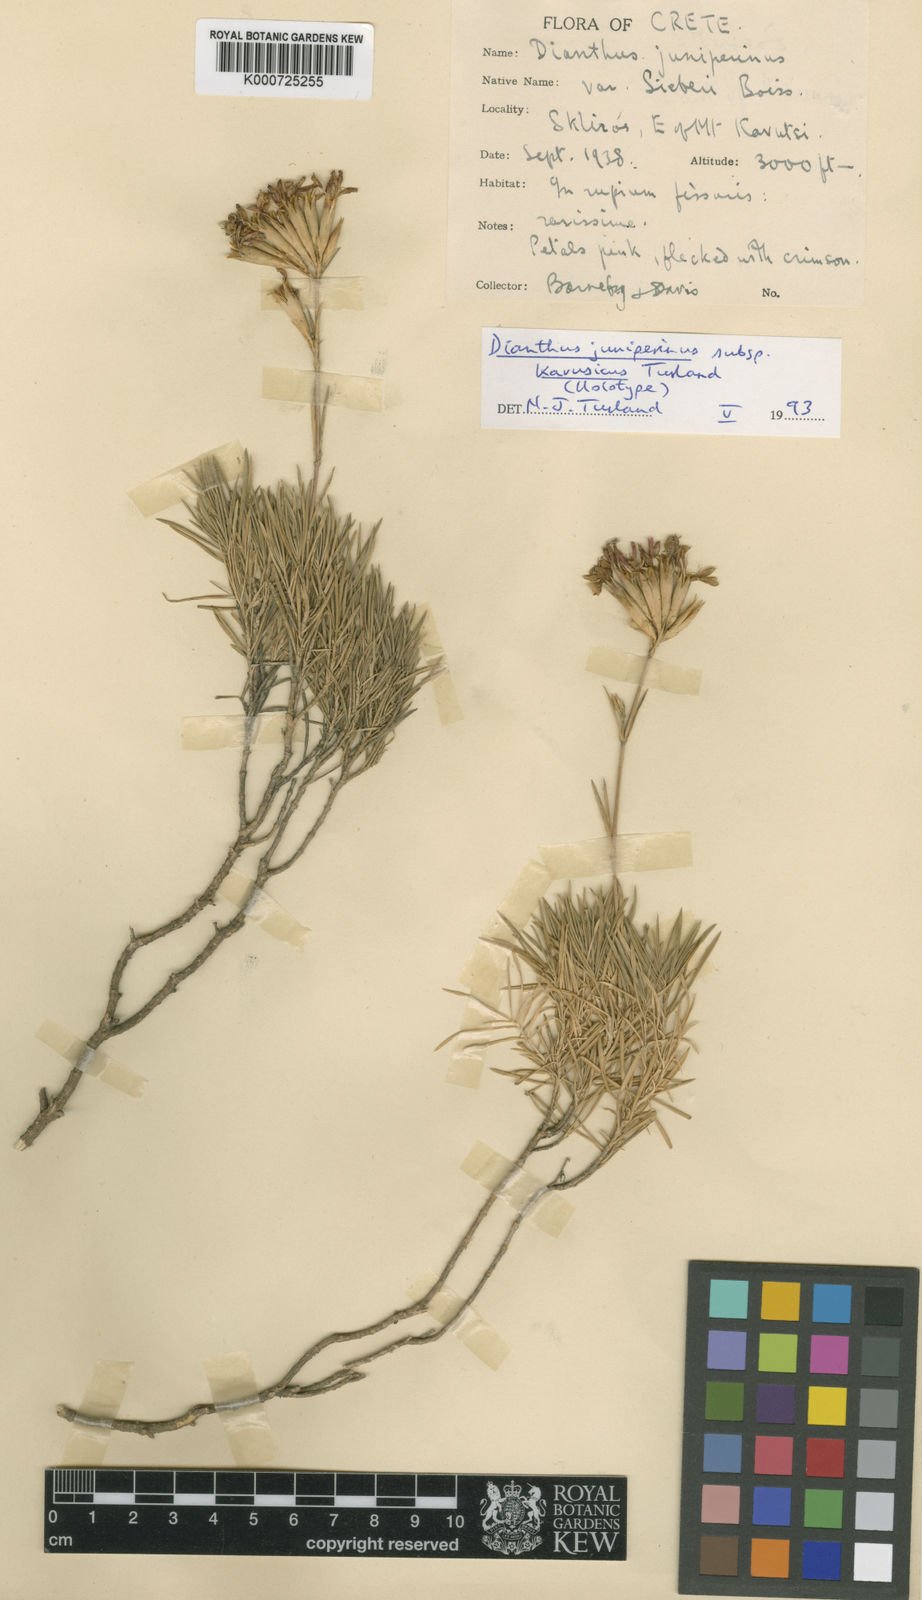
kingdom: Plantae
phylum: Tracheophyta
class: Magnoliopsida
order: Caryophyllales
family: Caryophyllaceae
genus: Dianthus
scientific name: Dianthus juniperinus
